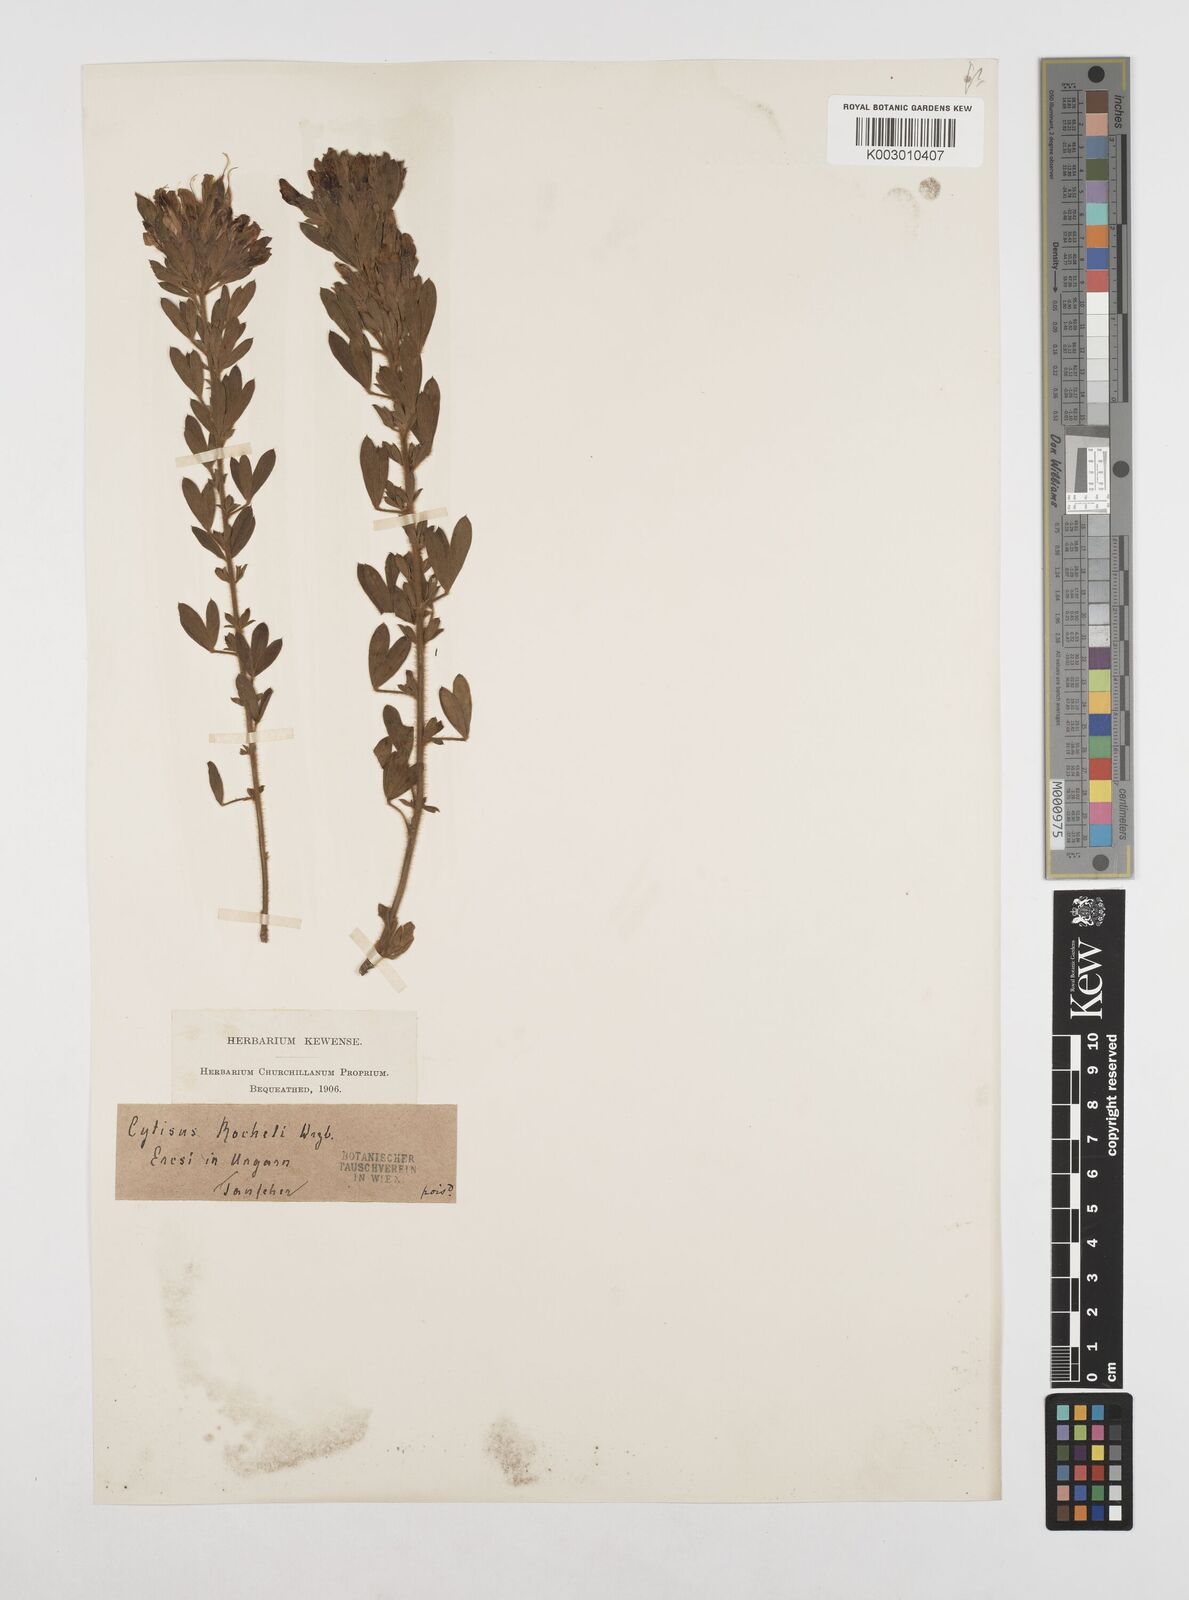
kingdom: Plantae
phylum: Tracheophyta
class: Magnoliopsida
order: Fabales
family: Fabaceae
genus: Chamaecytisus
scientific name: Chamaecytisus rochelii
